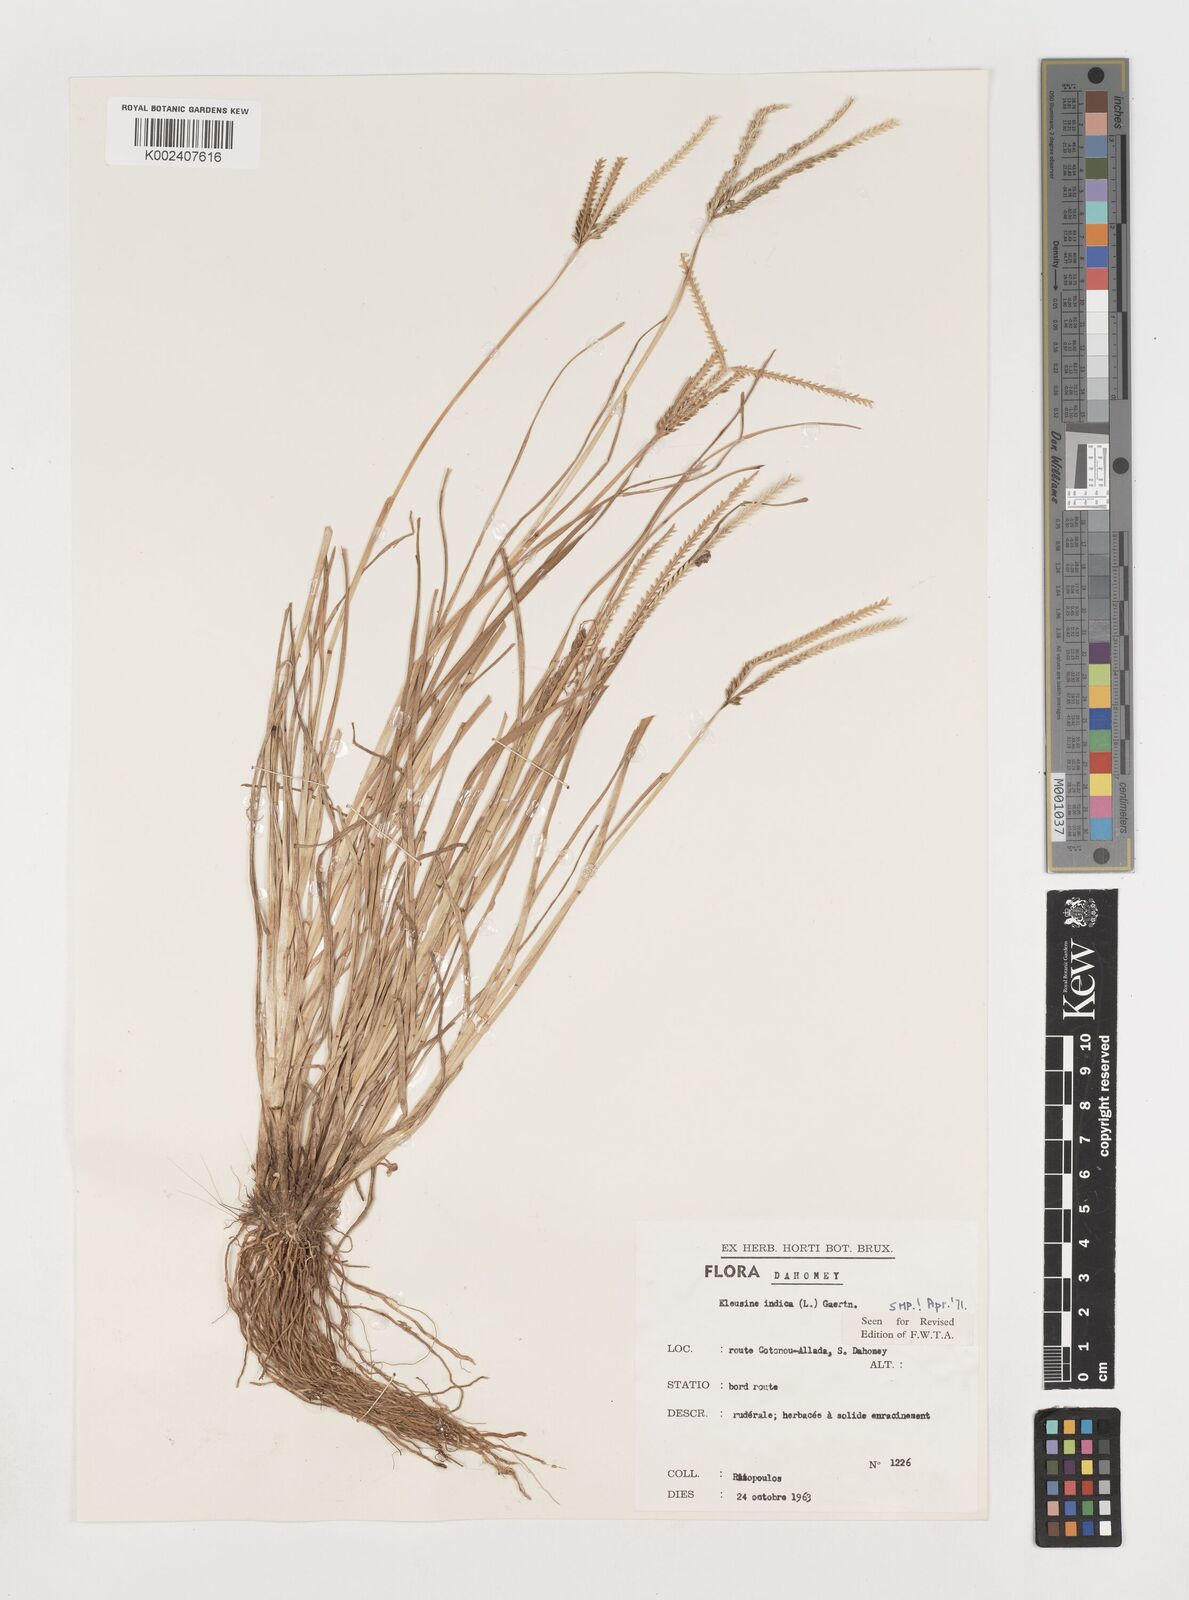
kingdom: Plantae
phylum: Tracheophyta
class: Liliopsida
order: Poales
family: Poaceae
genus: Eleusine
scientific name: Eleusine indica
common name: Yard-grass
